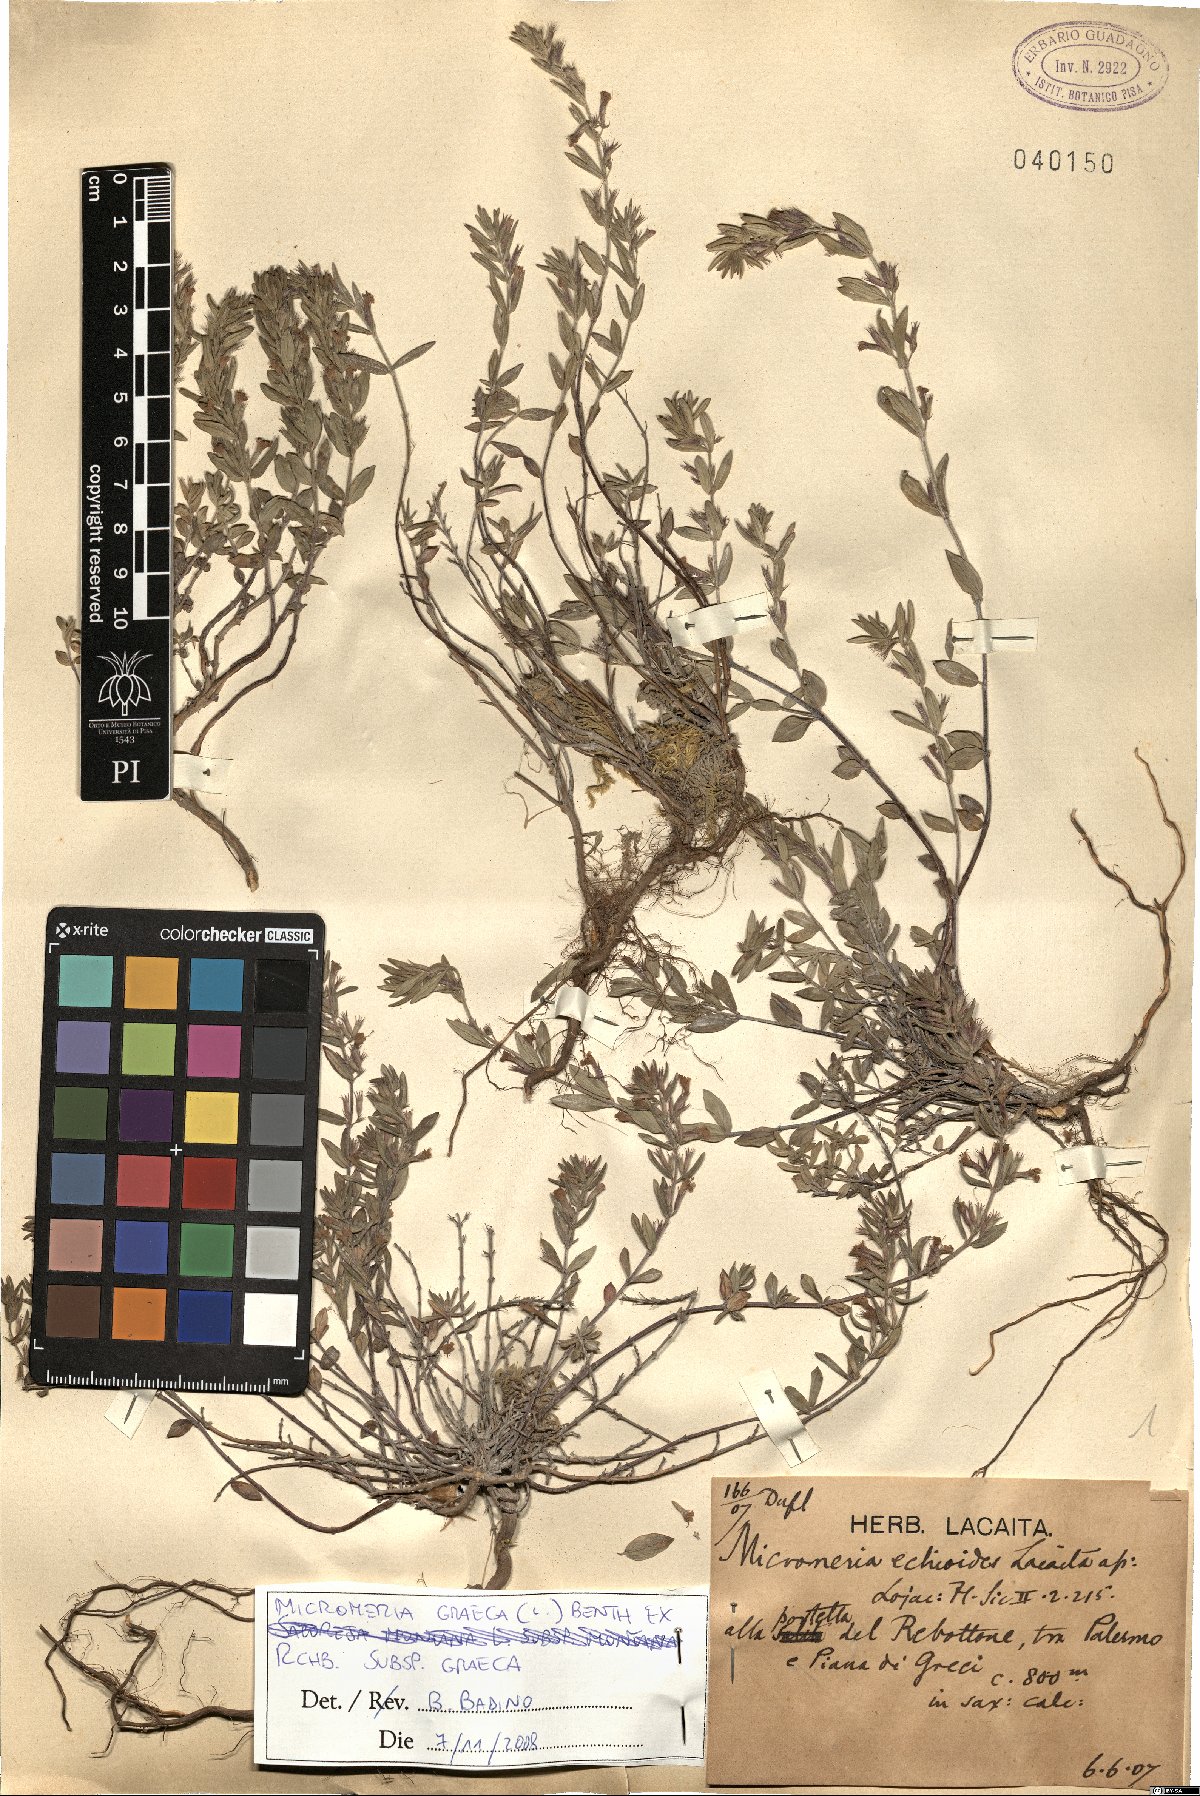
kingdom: Plantae
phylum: Tracheophyta
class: Magnoliopsida
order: Lamiales
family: Lamiaceae
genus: Micromeria
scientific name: Micromeria graeca
